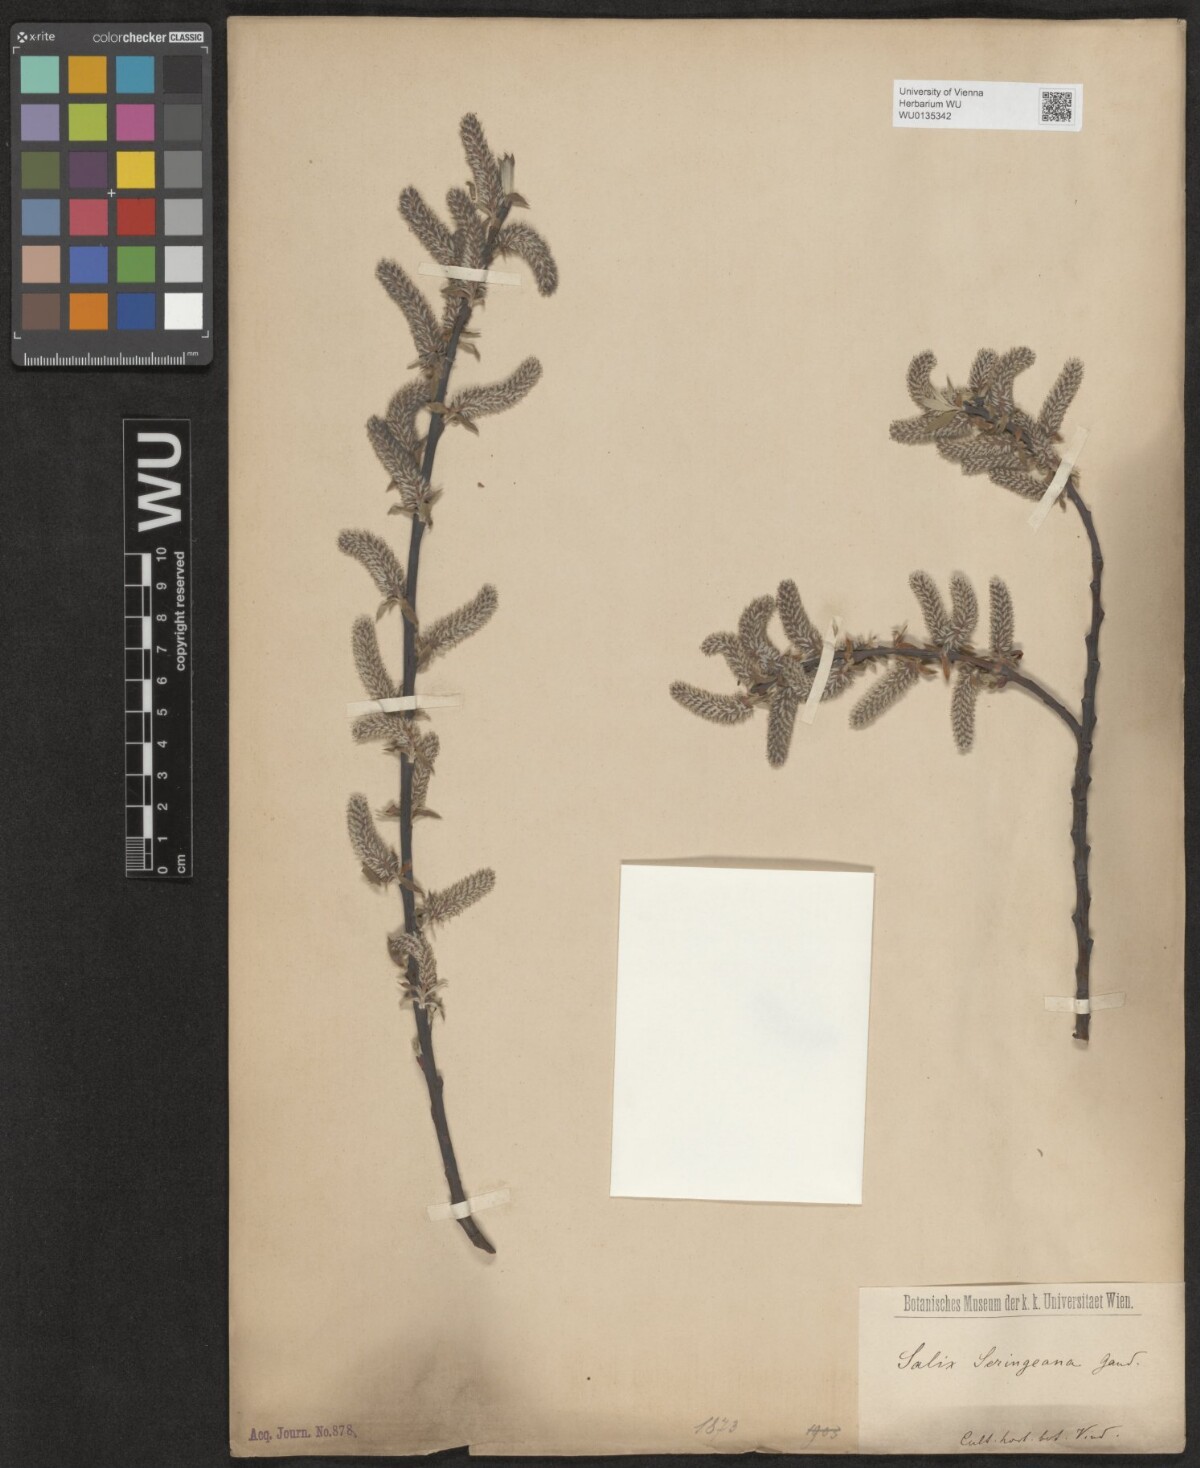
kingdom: Plantae
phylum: Tracheophyta
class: Magnoliopsida
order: Malpighiales
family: Salicaceae
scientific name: Salicaceae
